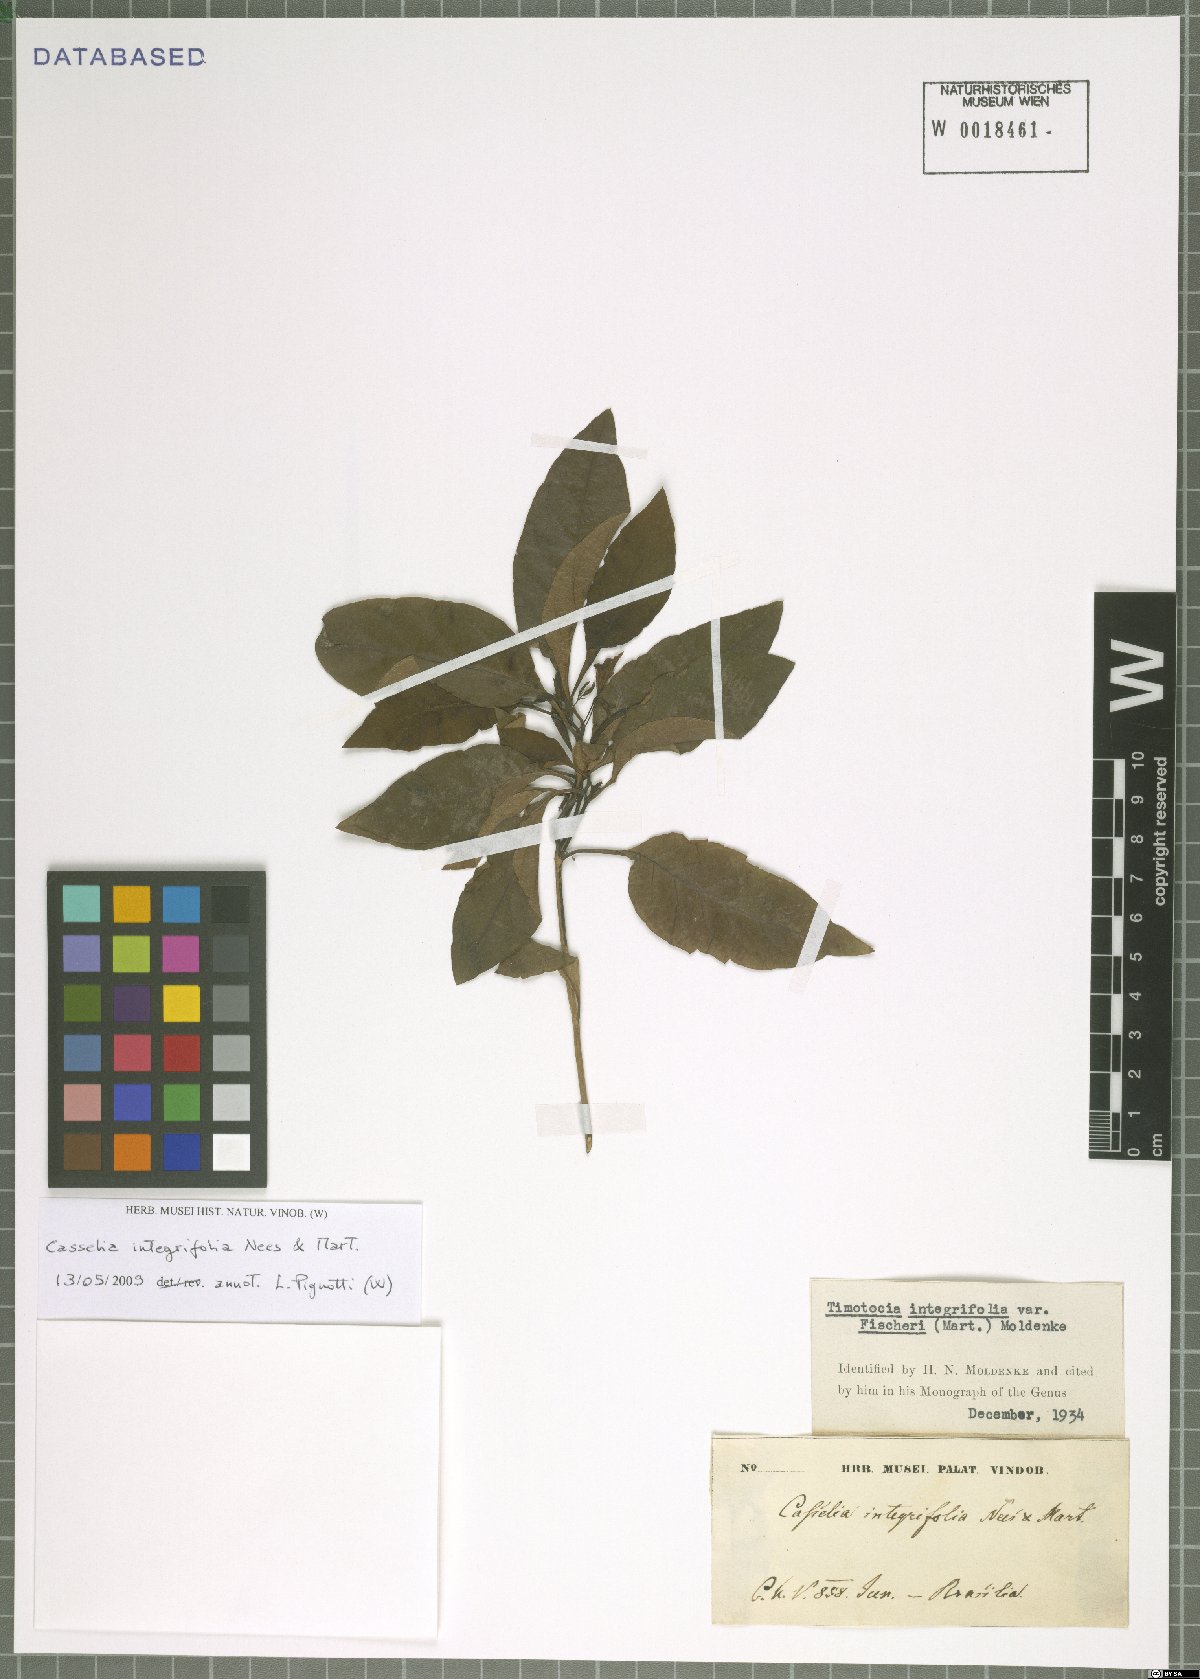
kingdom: Plantae
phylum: Tracheophyta
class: Magnoliopsida
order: Lamiales
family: Verbenaceae
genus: Casselia
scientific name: Casselia integrifolia
